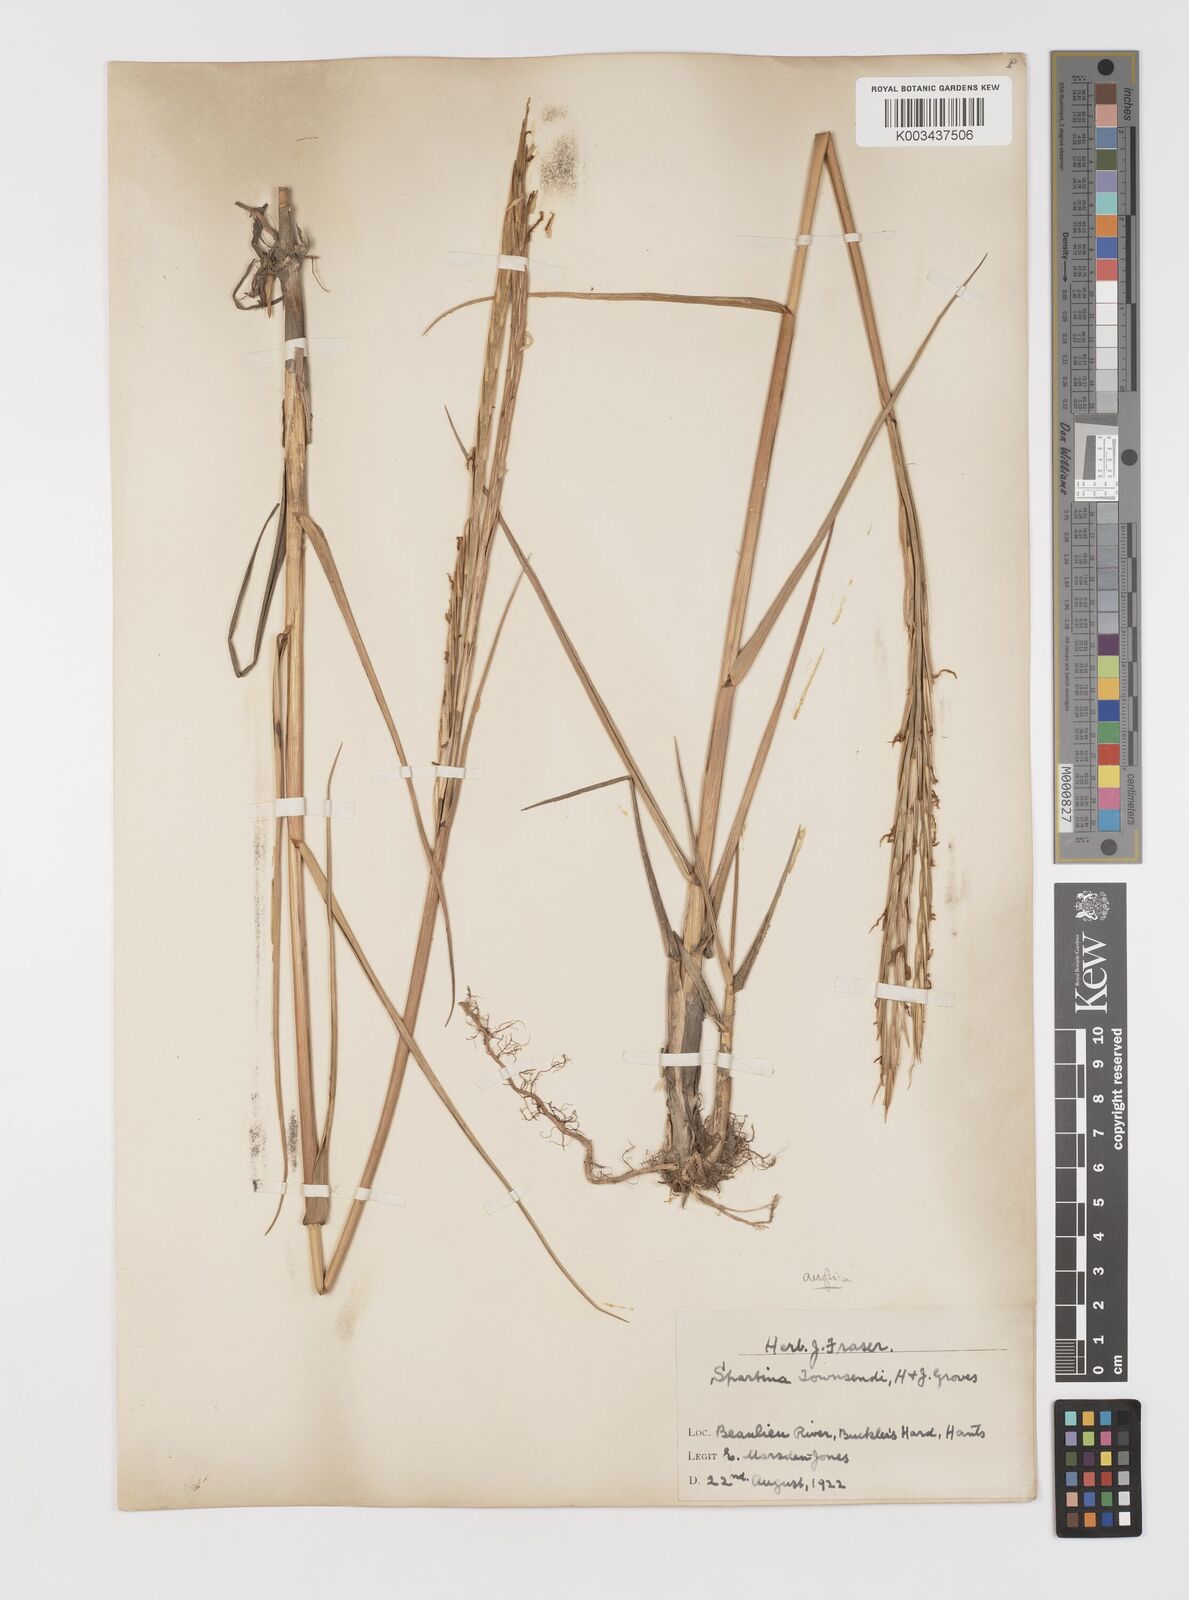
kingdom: Plantae
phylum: Tracheophyta
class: Liliopsida
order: Poales
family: Poaceae
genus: Sporobolus
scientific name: Sporobolus anglicus
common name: English cordgrass
